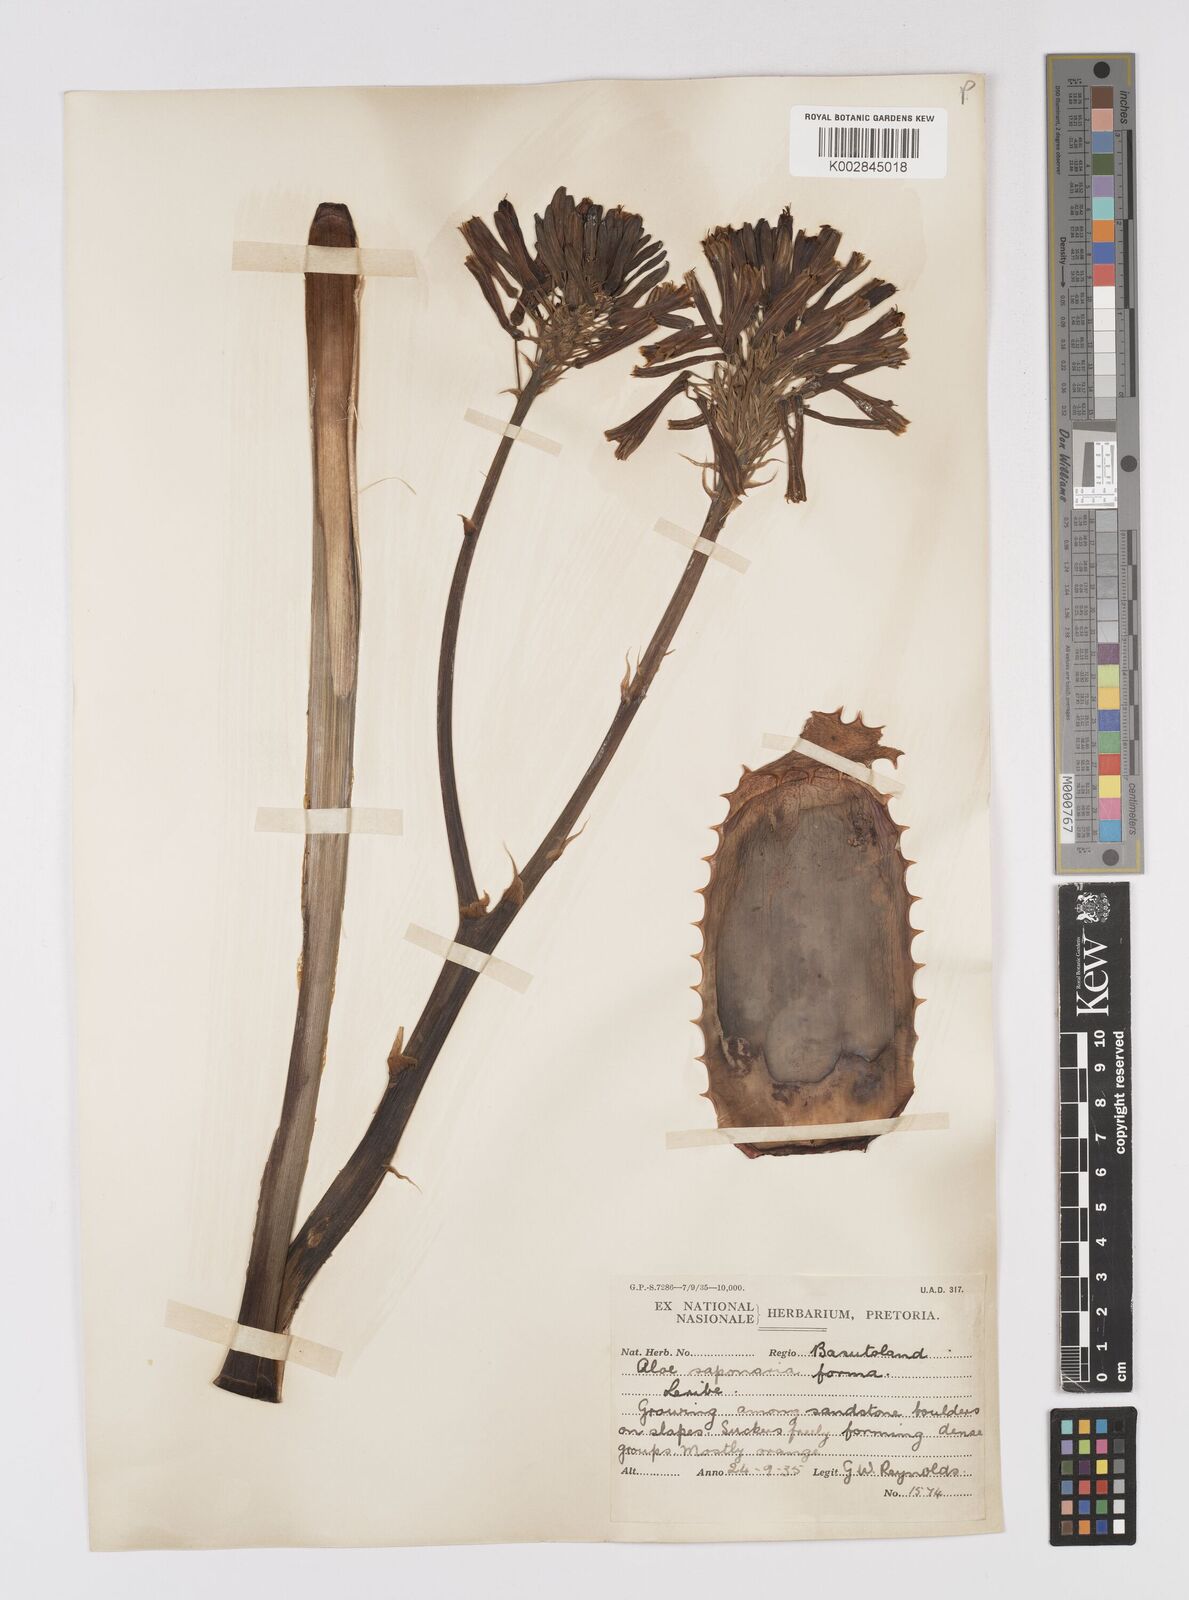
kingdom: Plantae
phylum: Tracheophyta
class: Liliopsida
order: Asparagales
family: Asphodelaceae
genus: Aloe
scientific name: Aloe microstigma
